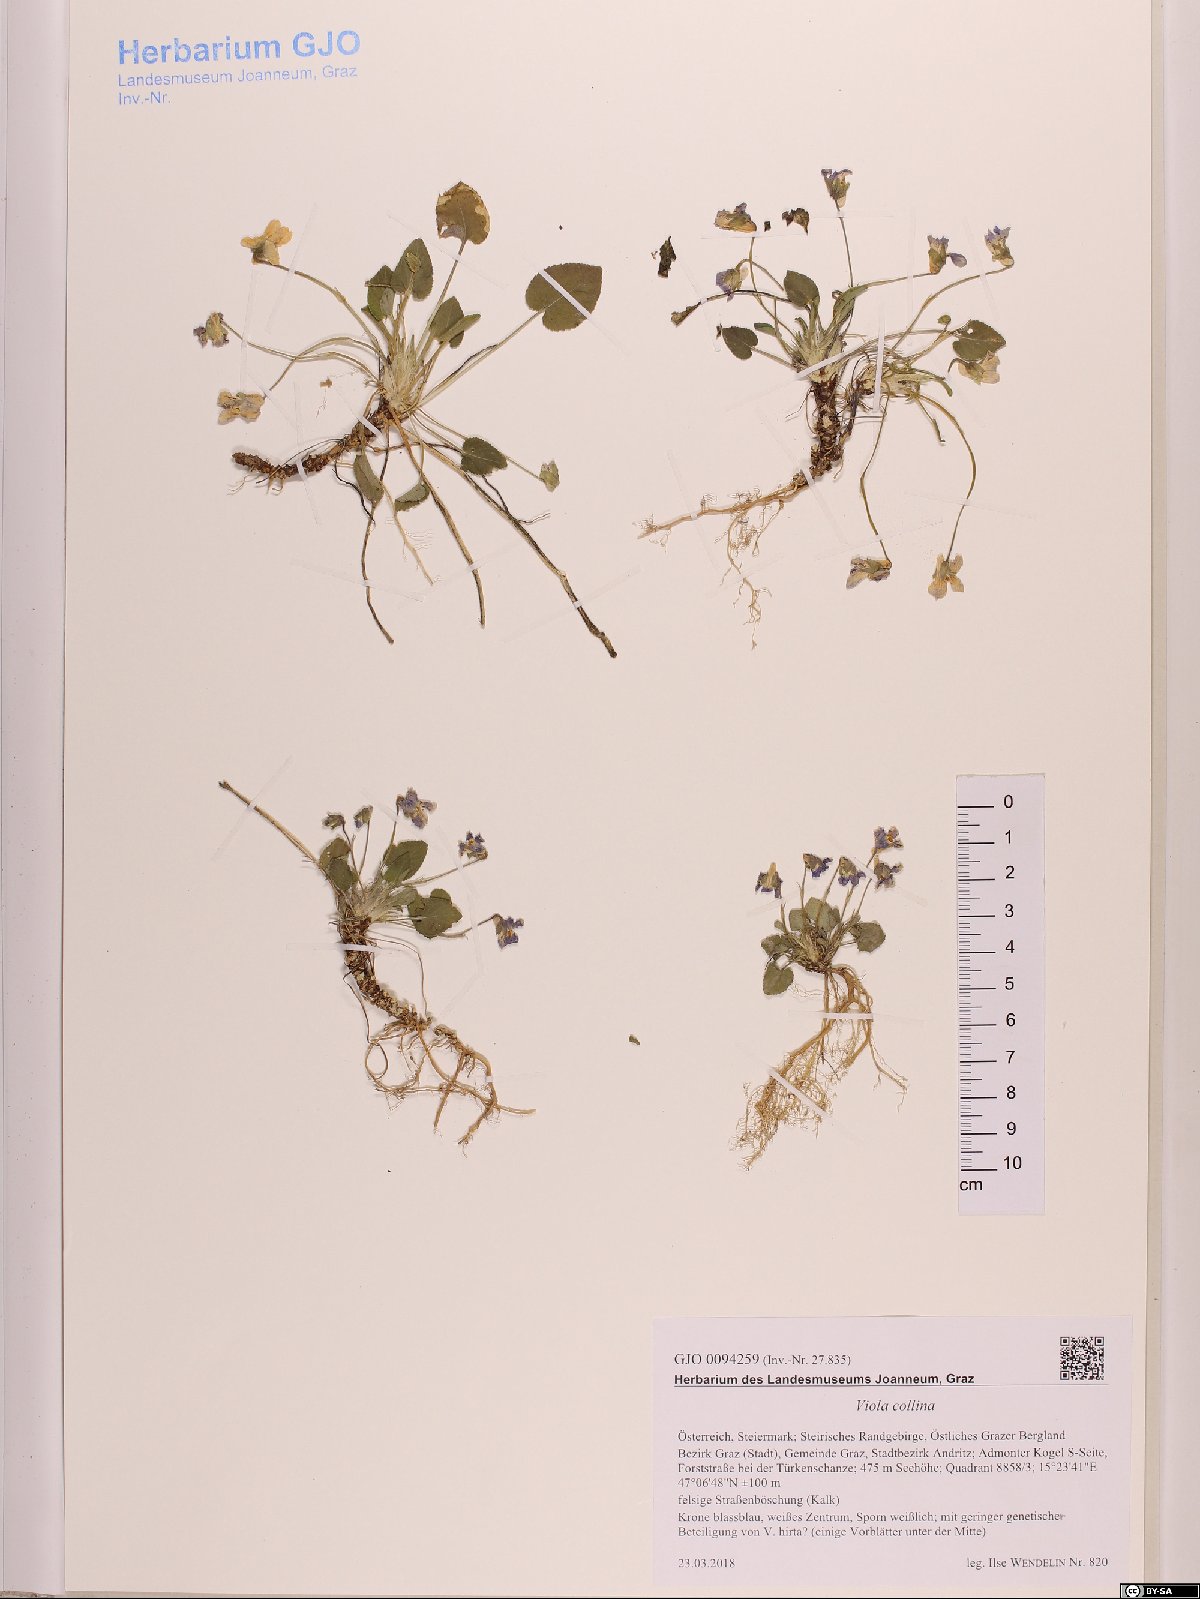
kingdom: Plantae
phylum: Tracheophyta
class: Magnoliopsida
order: Malpighiales
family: Violaceae
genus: Viola
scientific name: Viola collina
